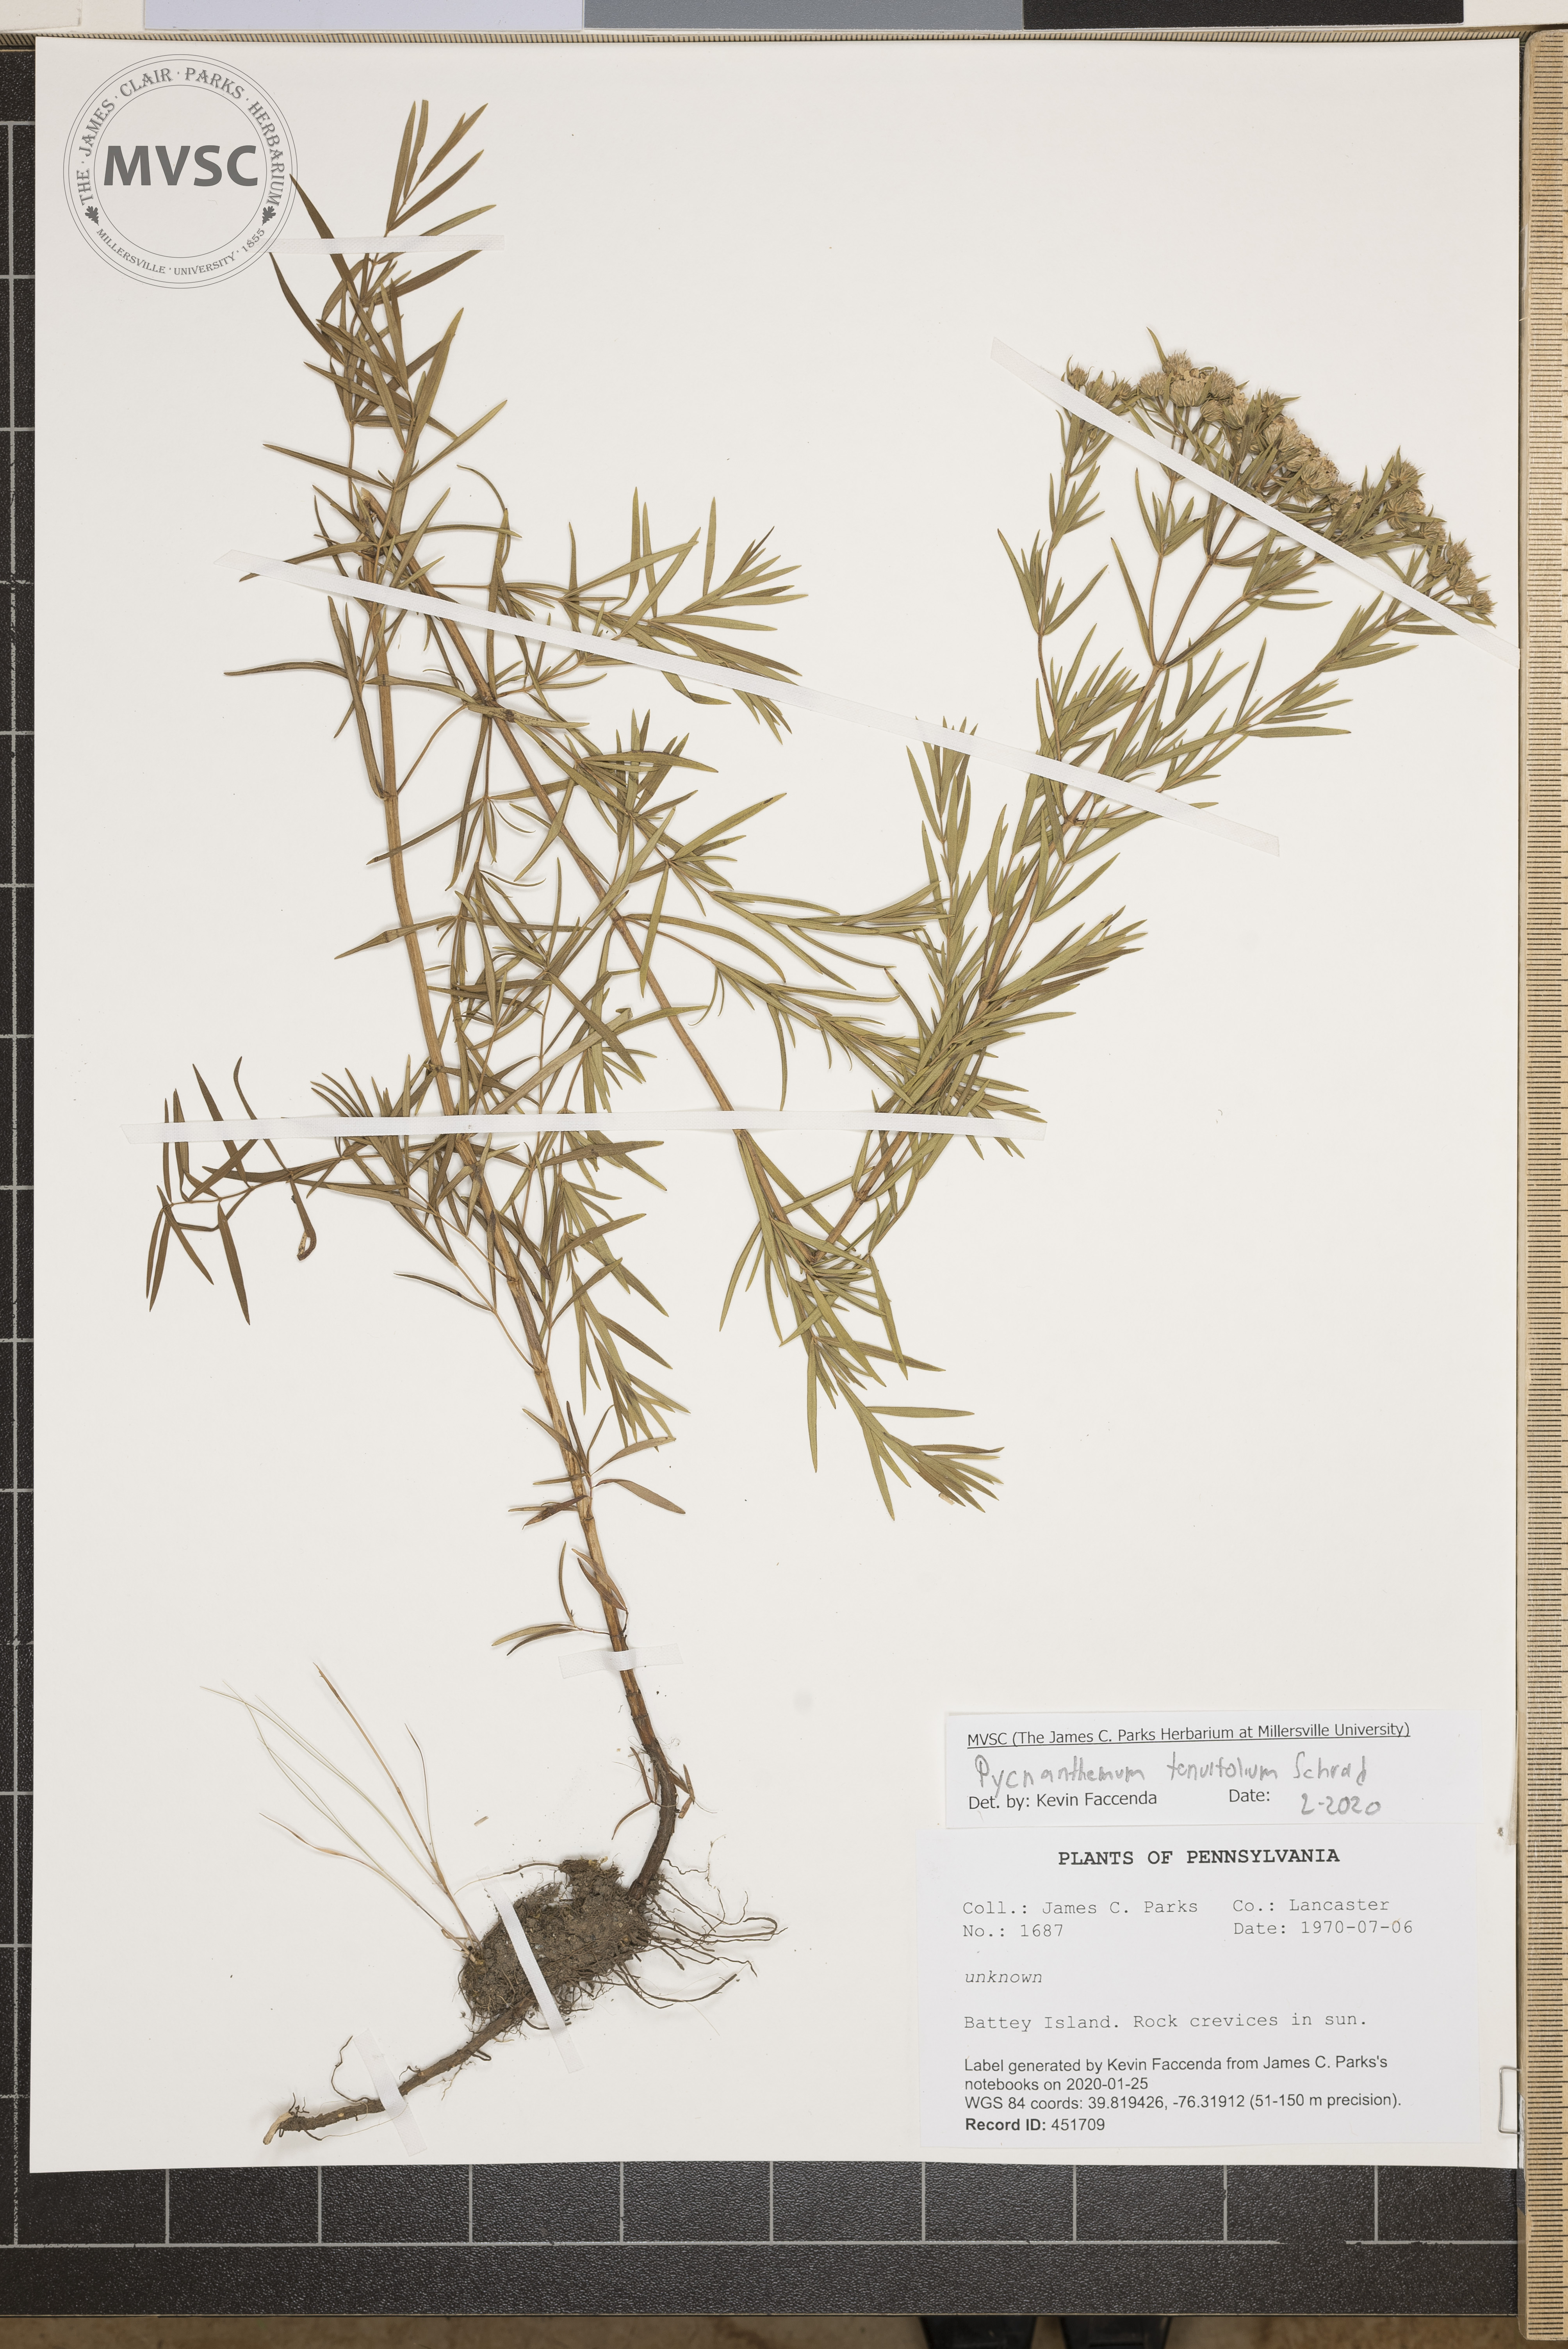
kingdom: Plantae
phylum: Tracheophyta
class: Magnoliopsida
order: Lamiales
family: Lamiaceae
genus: Pycnanthemum
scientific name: Pycnanthemum tenuifolium
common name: Narrow-leaf mountain-mint
